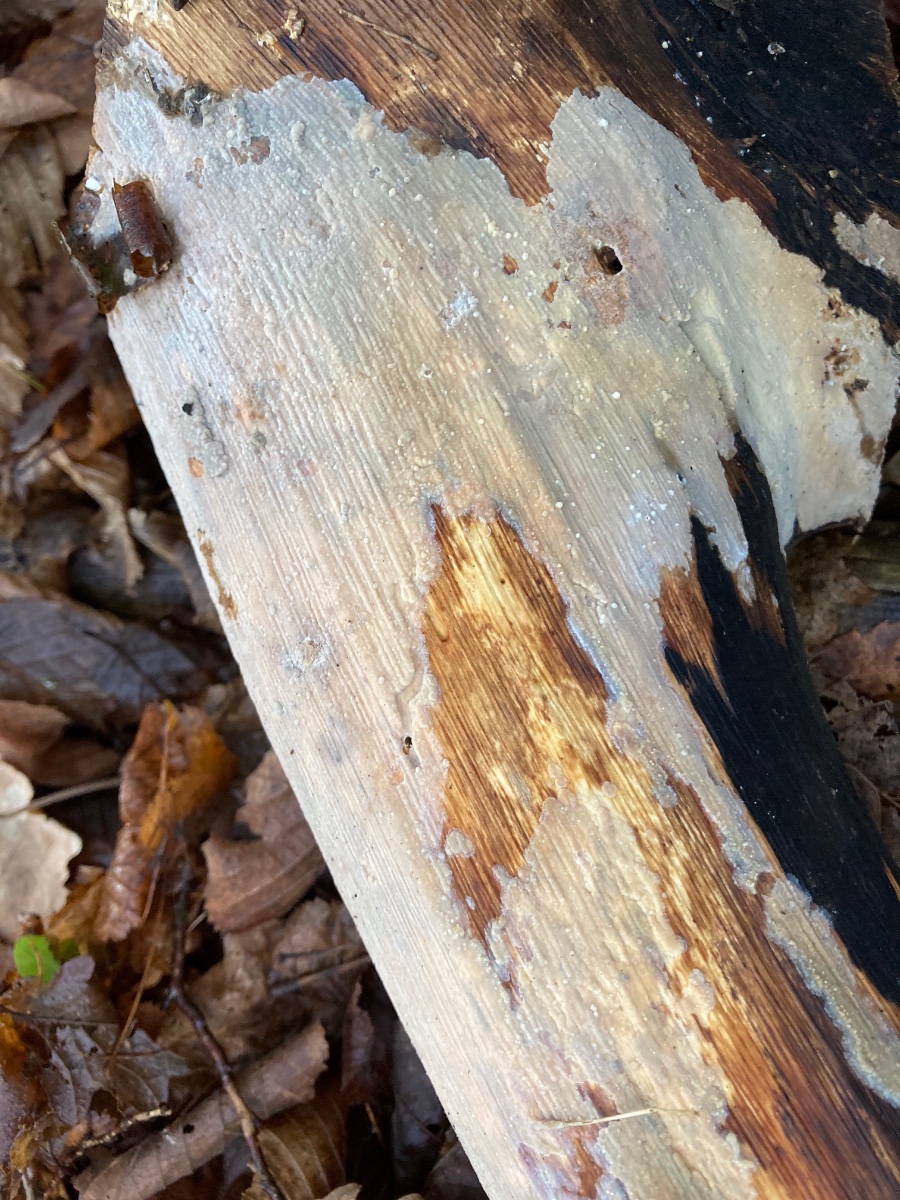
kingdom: Fungi
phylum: Basidiomycota
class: Agaricomycetes
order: Agaricales
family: Radulomycetaceae
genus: Radulomyces
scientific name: Radulomyces confluens
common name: glat naftalinskind
